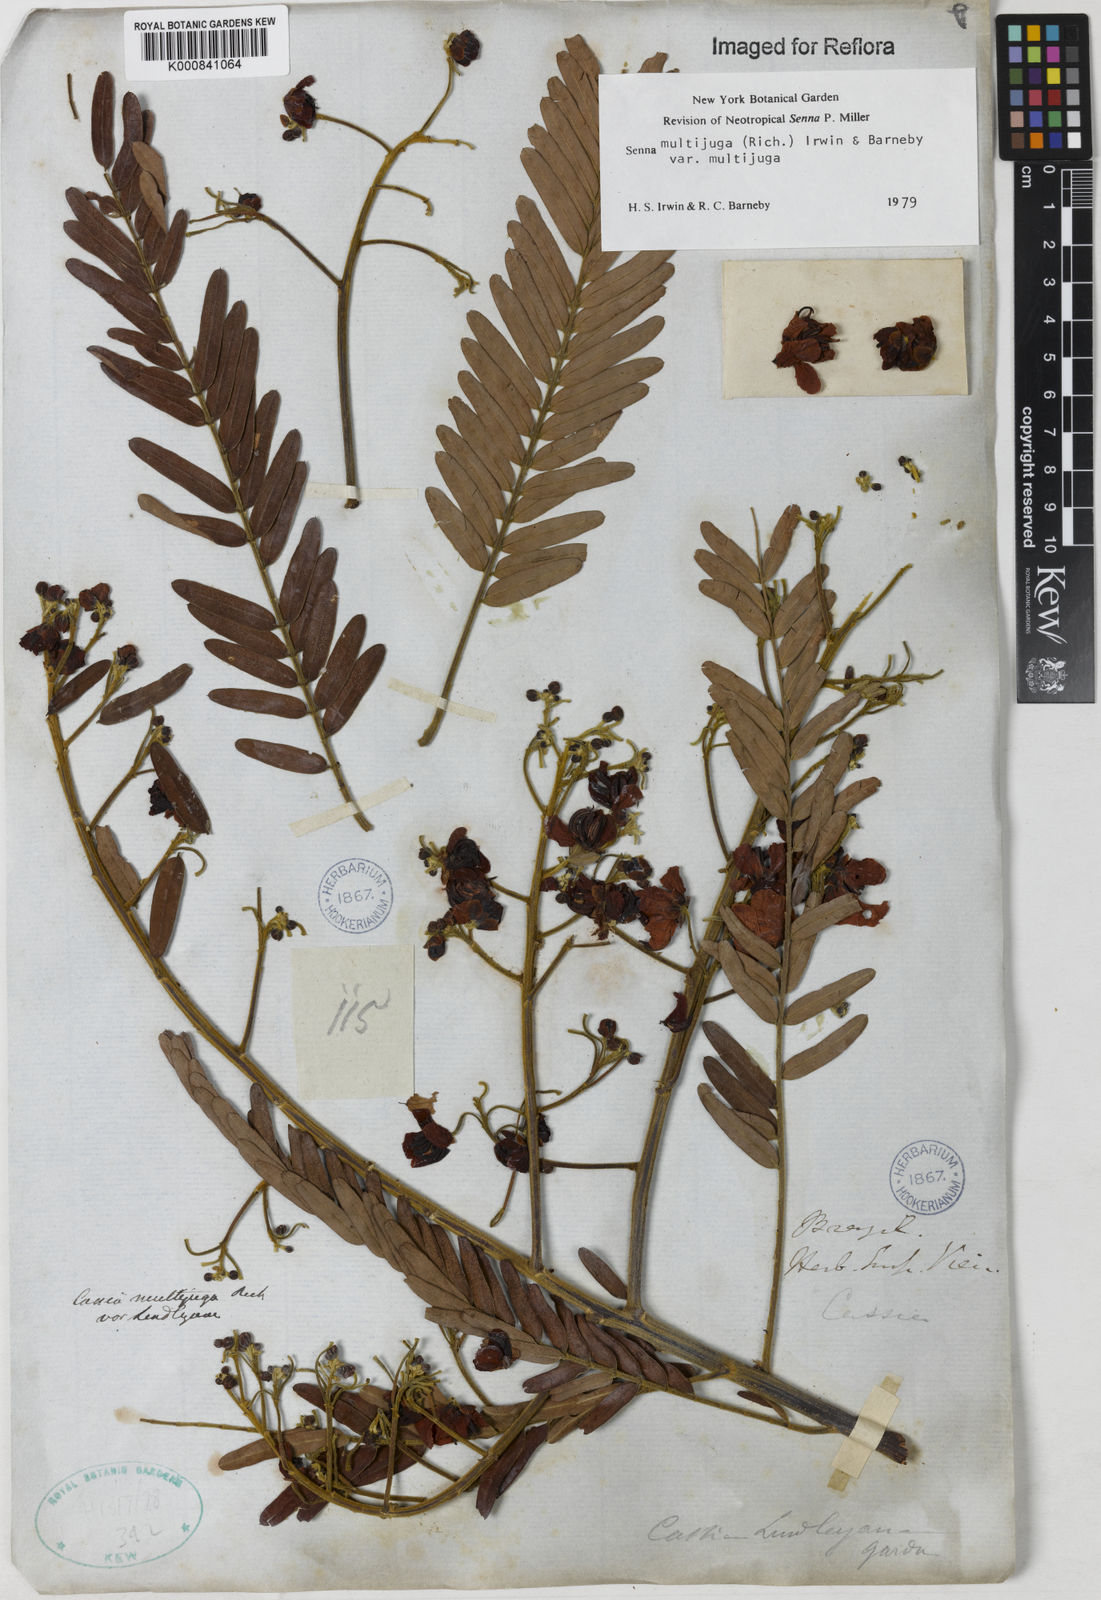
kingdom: Plantae
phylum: Tracheophyta
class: Magnoliopsida
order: Fabales
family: Fabaceae
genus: Senna
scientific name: Senna multijuga
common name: False sicklepod
